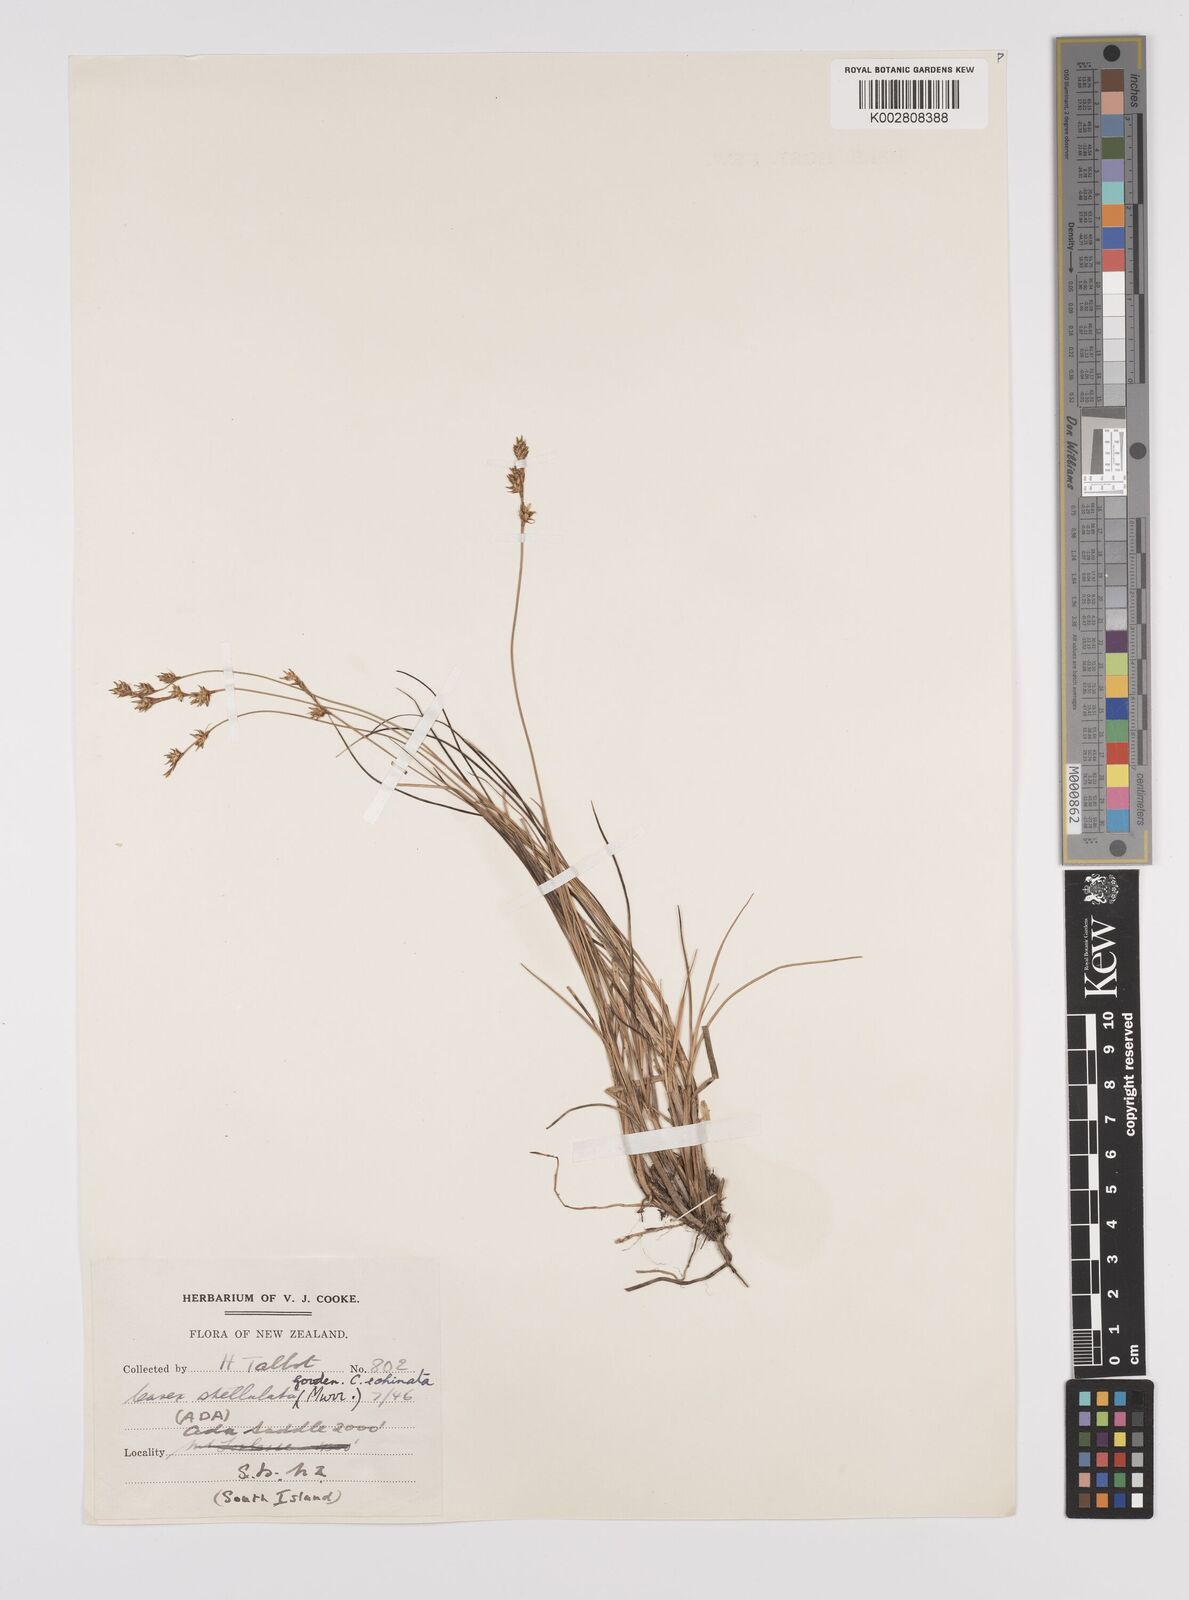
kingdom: Plantae
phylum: Tracheophyta
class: Liliopsida
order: Poales
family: Cyperaceae
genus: Carex
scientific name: Carex echinata
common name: Star sedge
